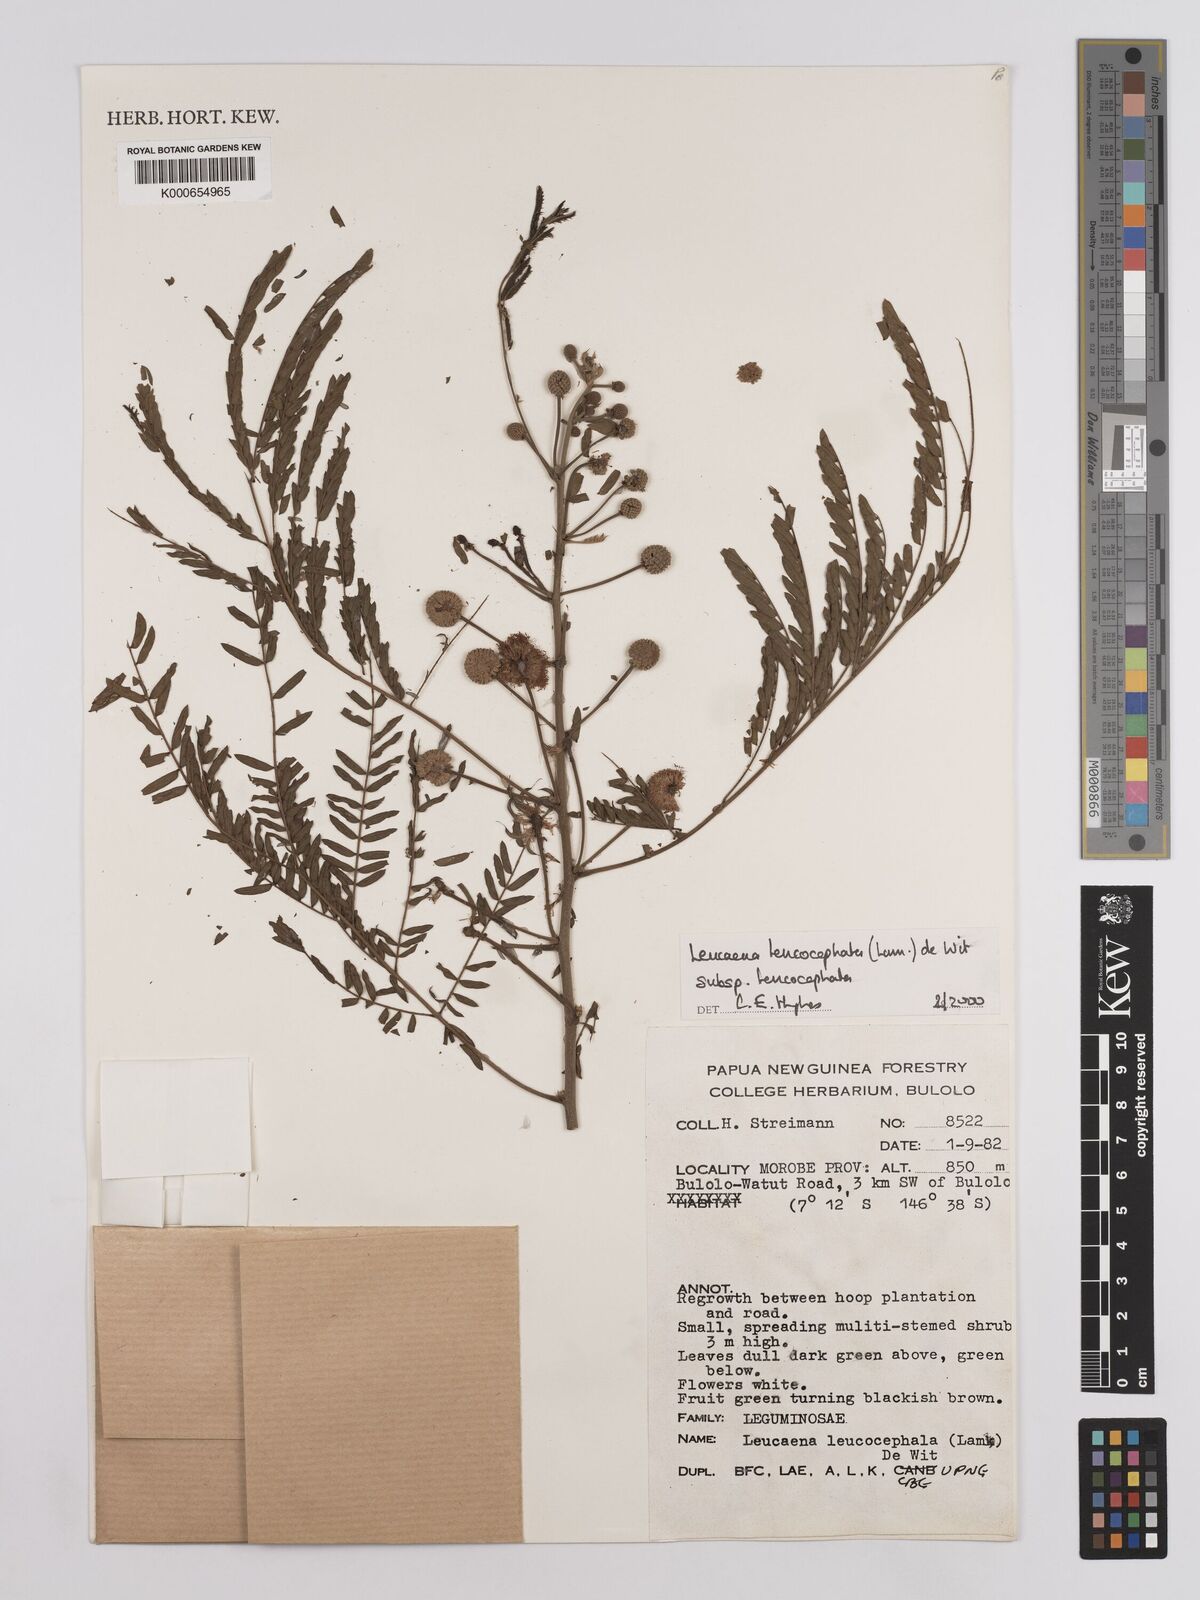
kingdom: Plantae
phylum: Tracheophyta
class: Magnoliopsida
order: Fabales
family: Fabaceae
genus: Leucaena
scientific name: Leucaena leucocephala
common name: White leadtree
